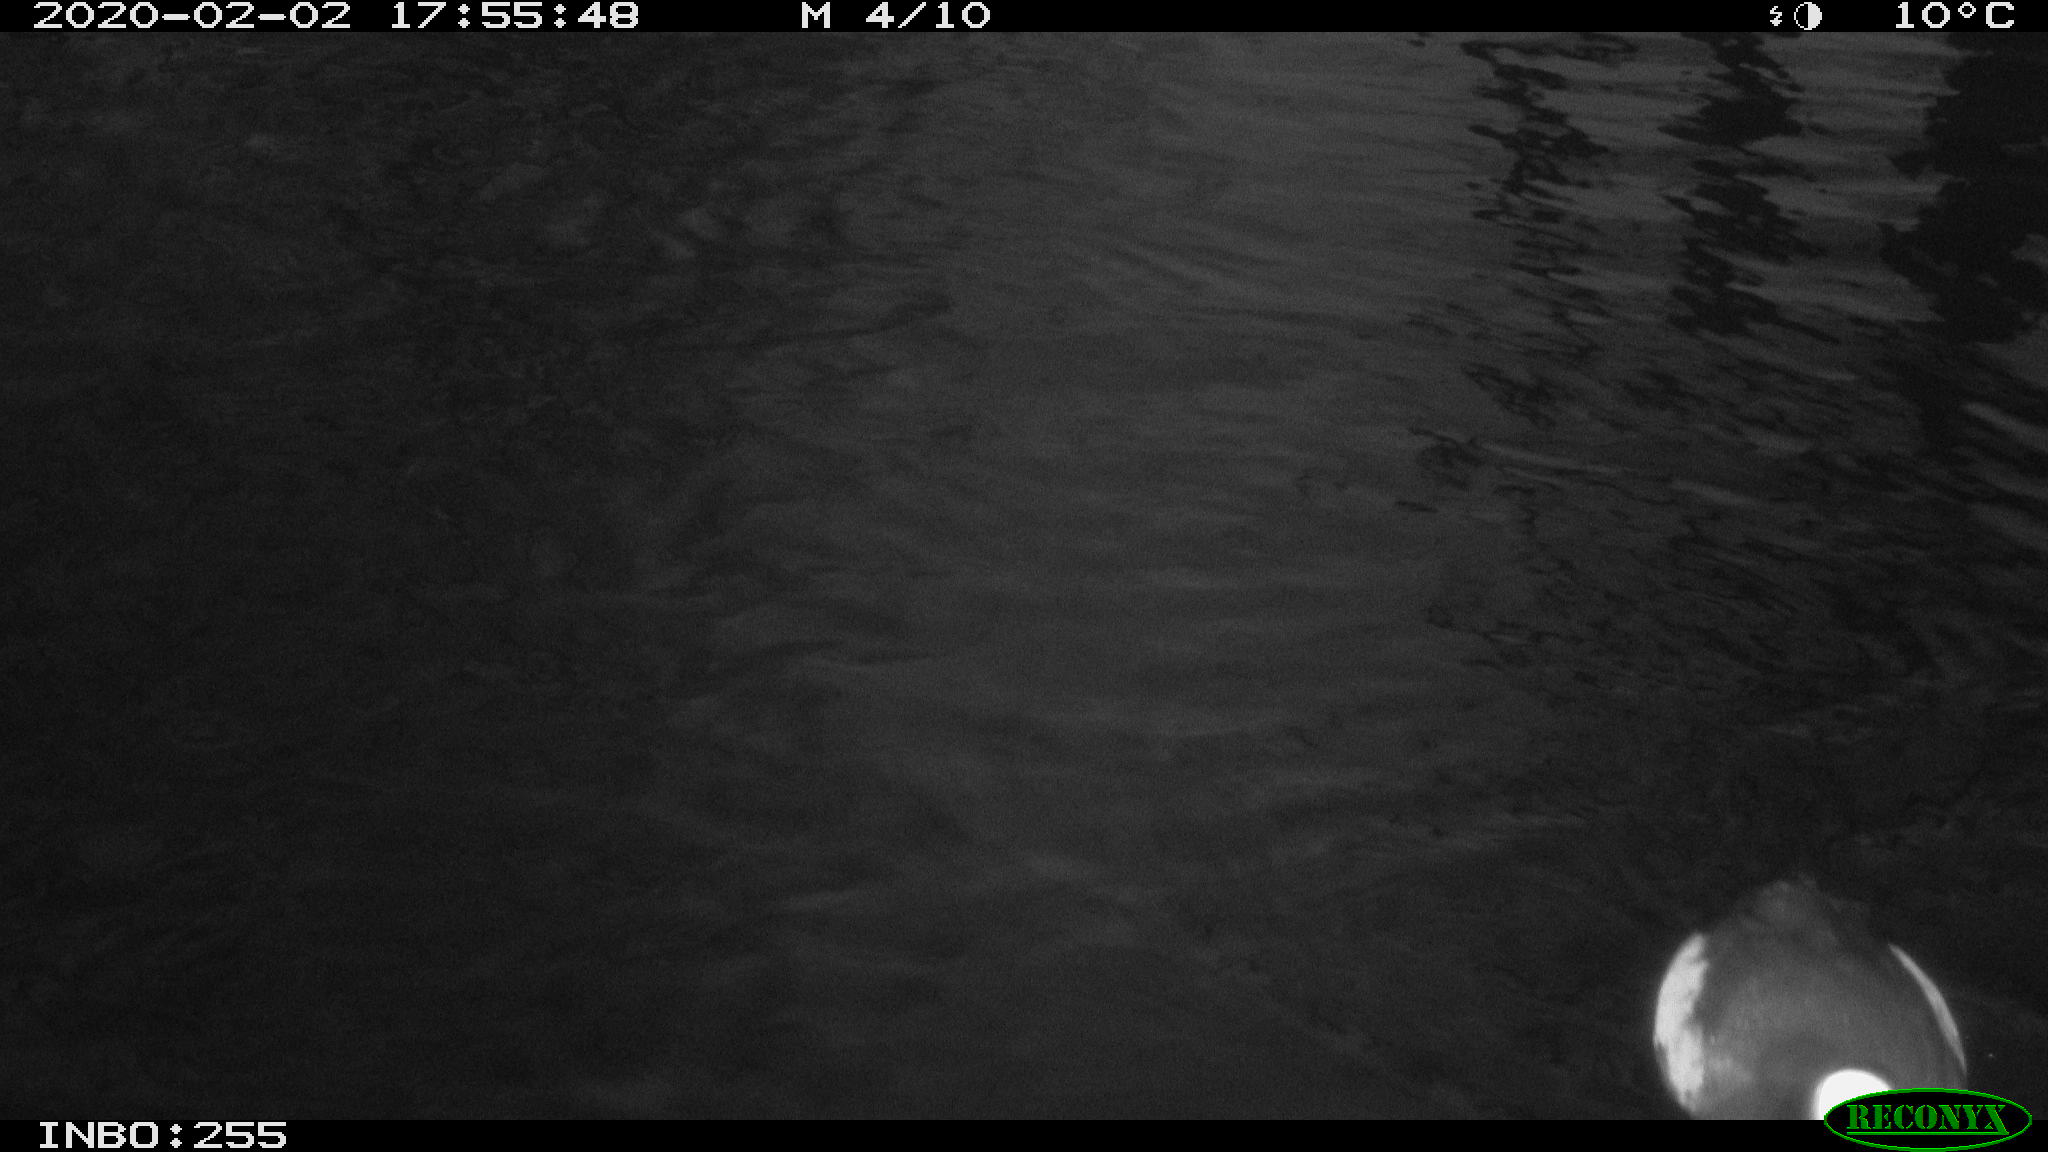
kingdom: Animalia
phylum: Chordata
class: Aves
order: Gruiformes
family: Rallidae
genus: Fulica
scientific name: Fulica atra
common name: Eurasian coot
